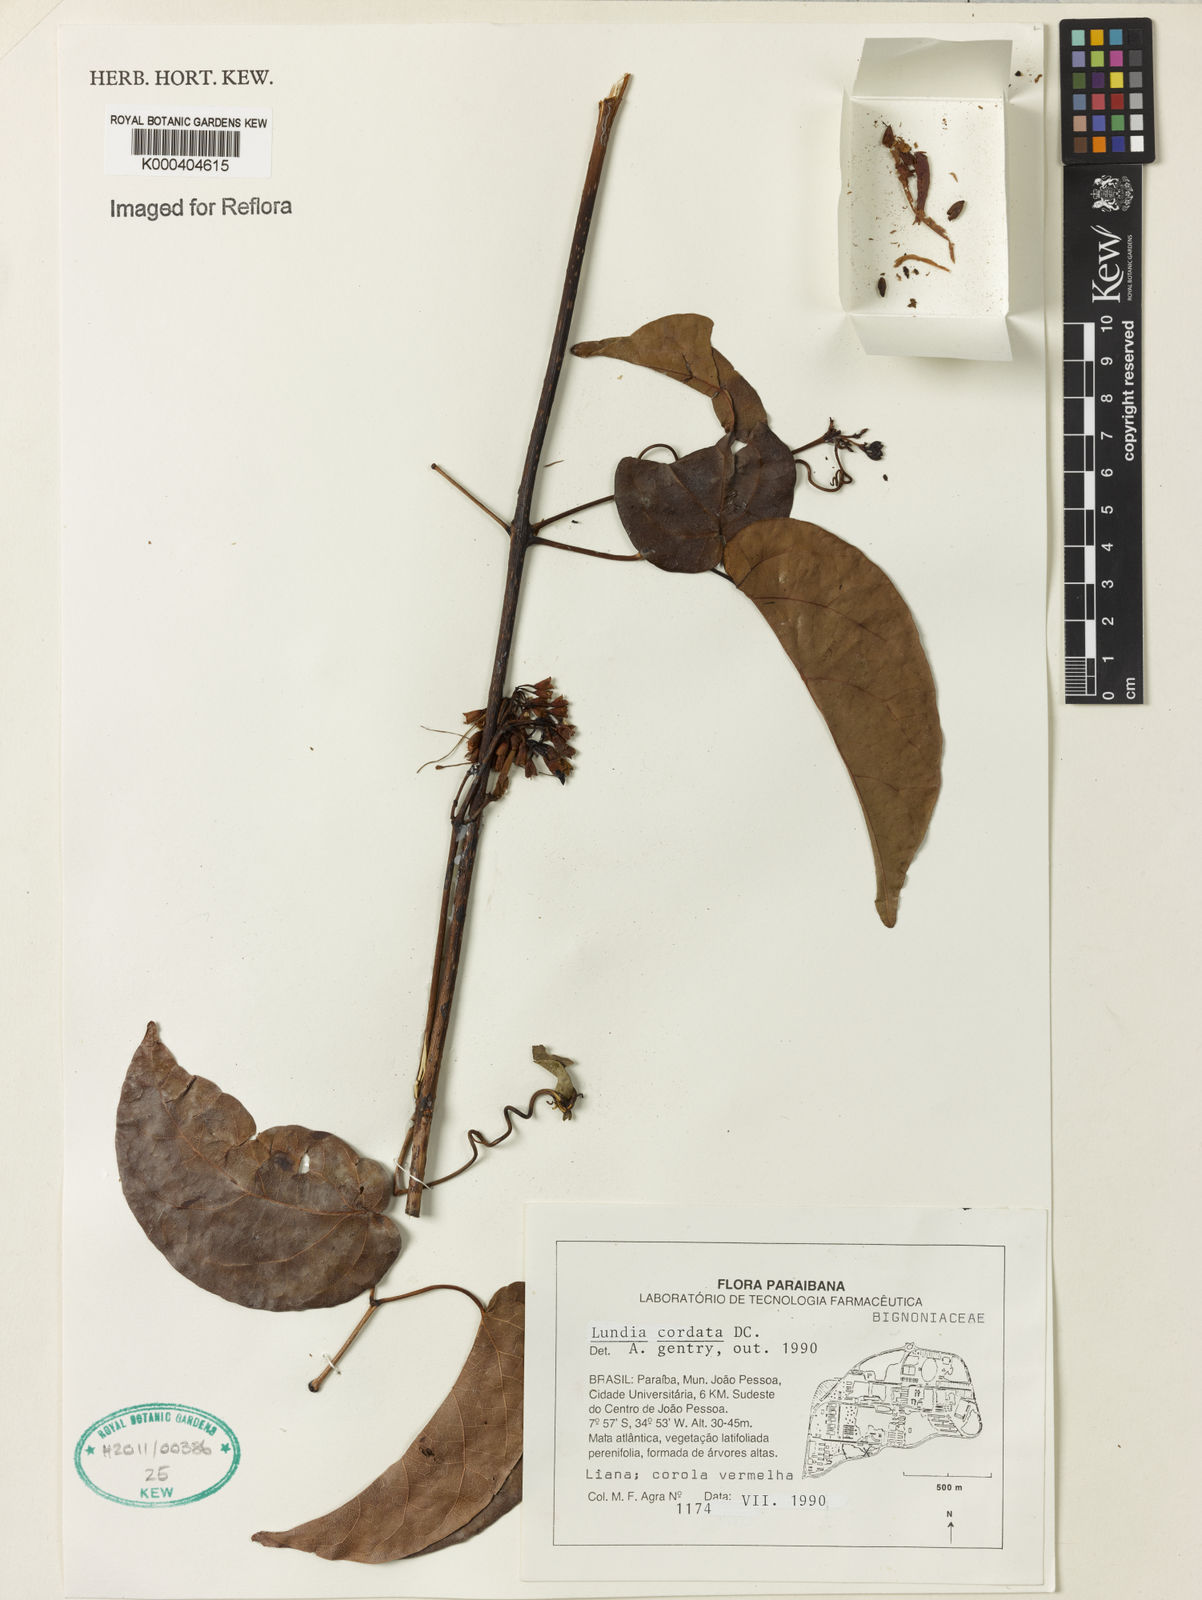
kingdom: Plantae
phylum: Tracheophyta
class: Magnoliopsida
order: Lamiales
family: Bignoniaceae
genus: Lundia
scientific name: Lundia corymbifera
